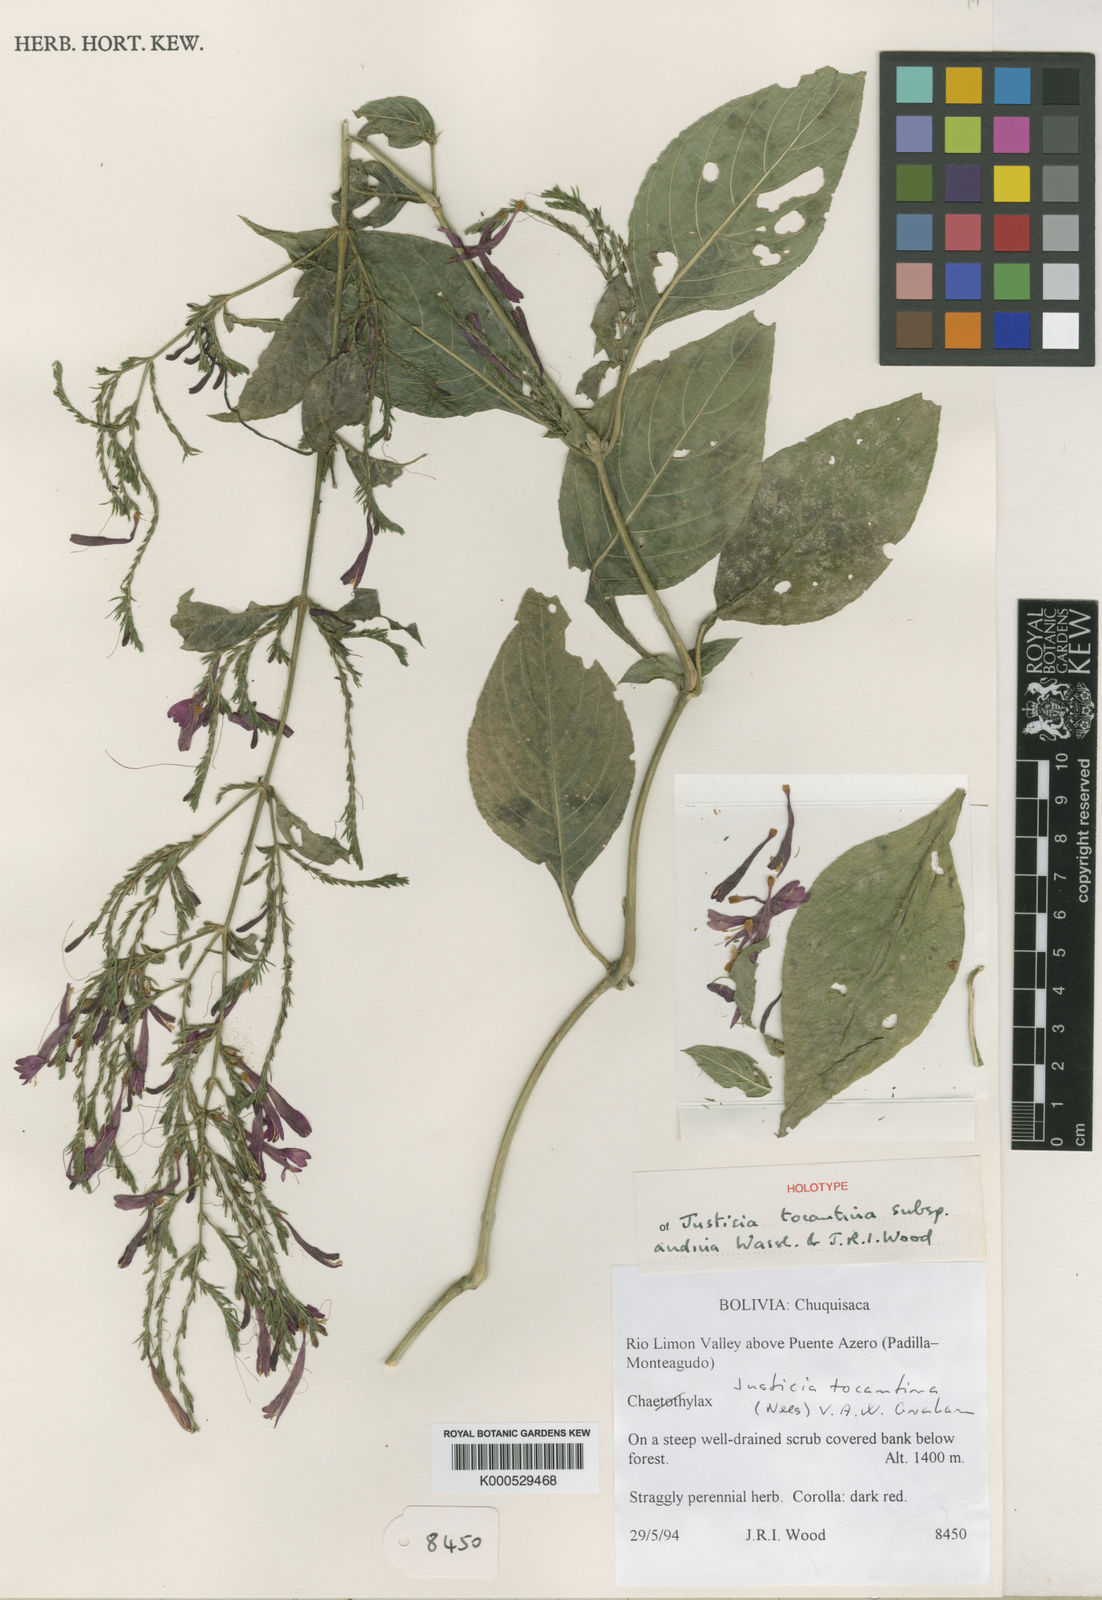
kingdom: Plantae
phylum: Tracheophyta
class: Magnoliopsida
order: Lamiales
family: Acanthaceae
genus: Justicia
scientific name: Justicia tocantina
